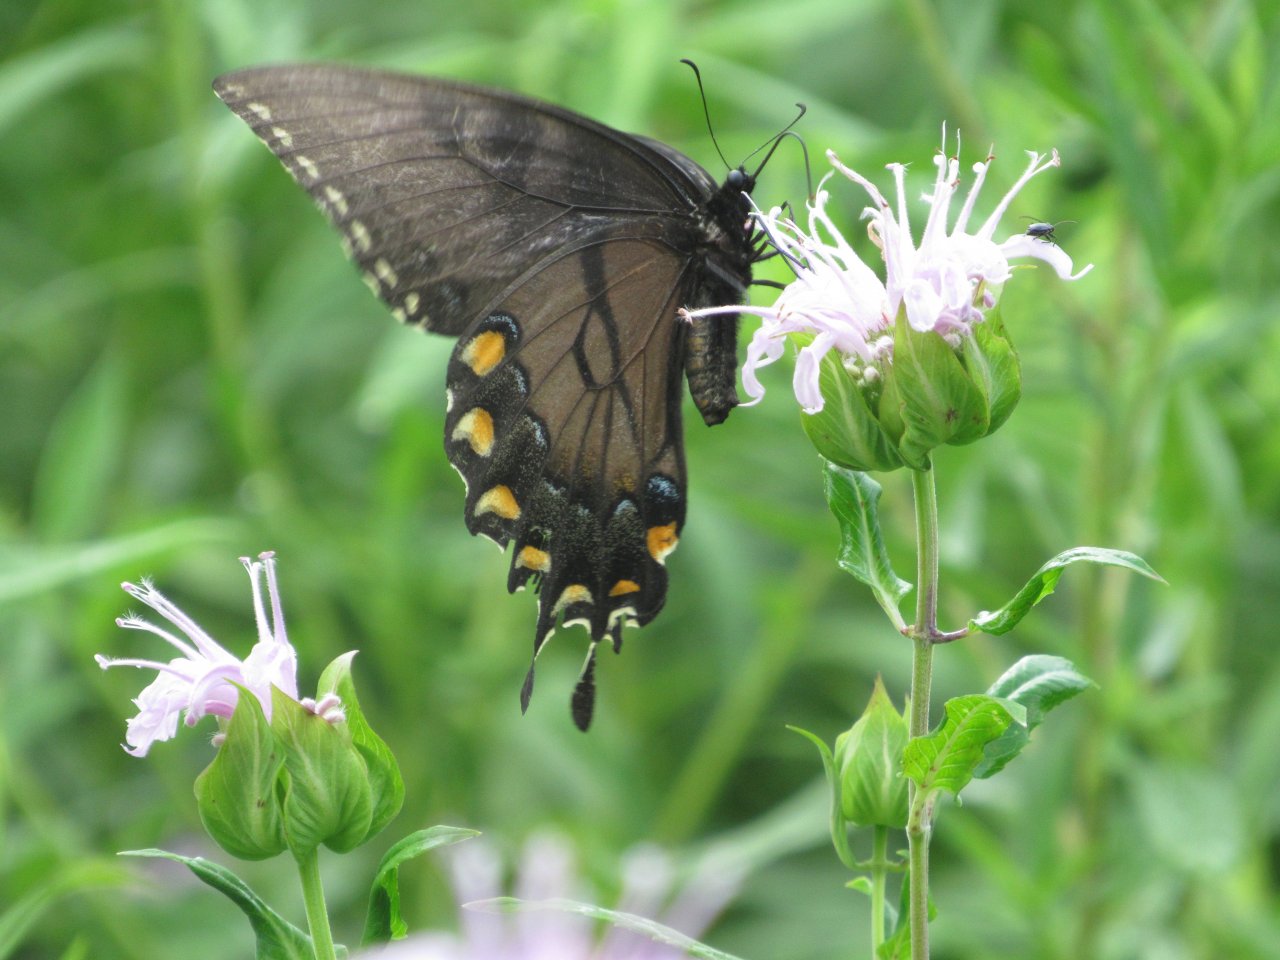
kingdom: Animalia
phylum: Arthropoda
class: Insecta
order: Lepidoptera
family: Papilionidae
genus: Pterourus
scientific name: Pterourus glaucus
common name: Eastern Tiger Swallowtail
